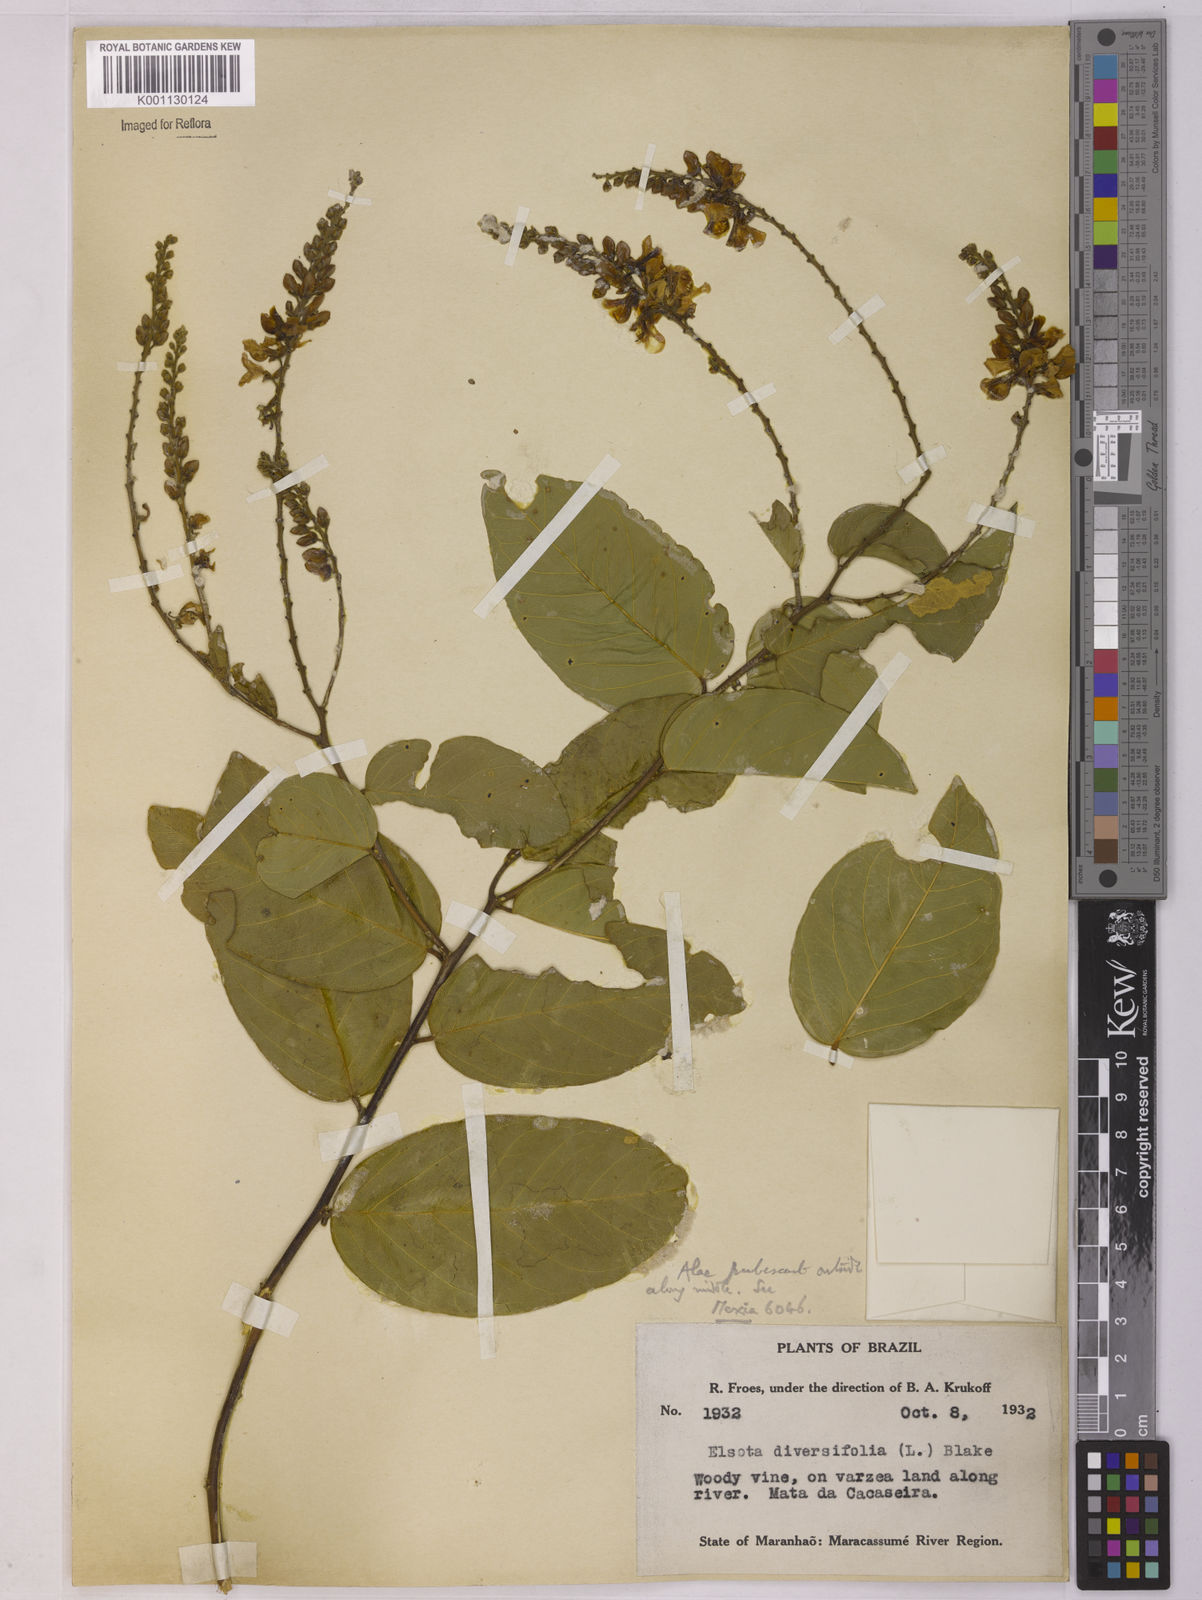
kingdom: Plantae
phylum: Tracheophyta
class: Magnoliopsida
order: Fabales
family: Polygalaceae
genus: Securidaca
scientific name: Securidaca longifolia
